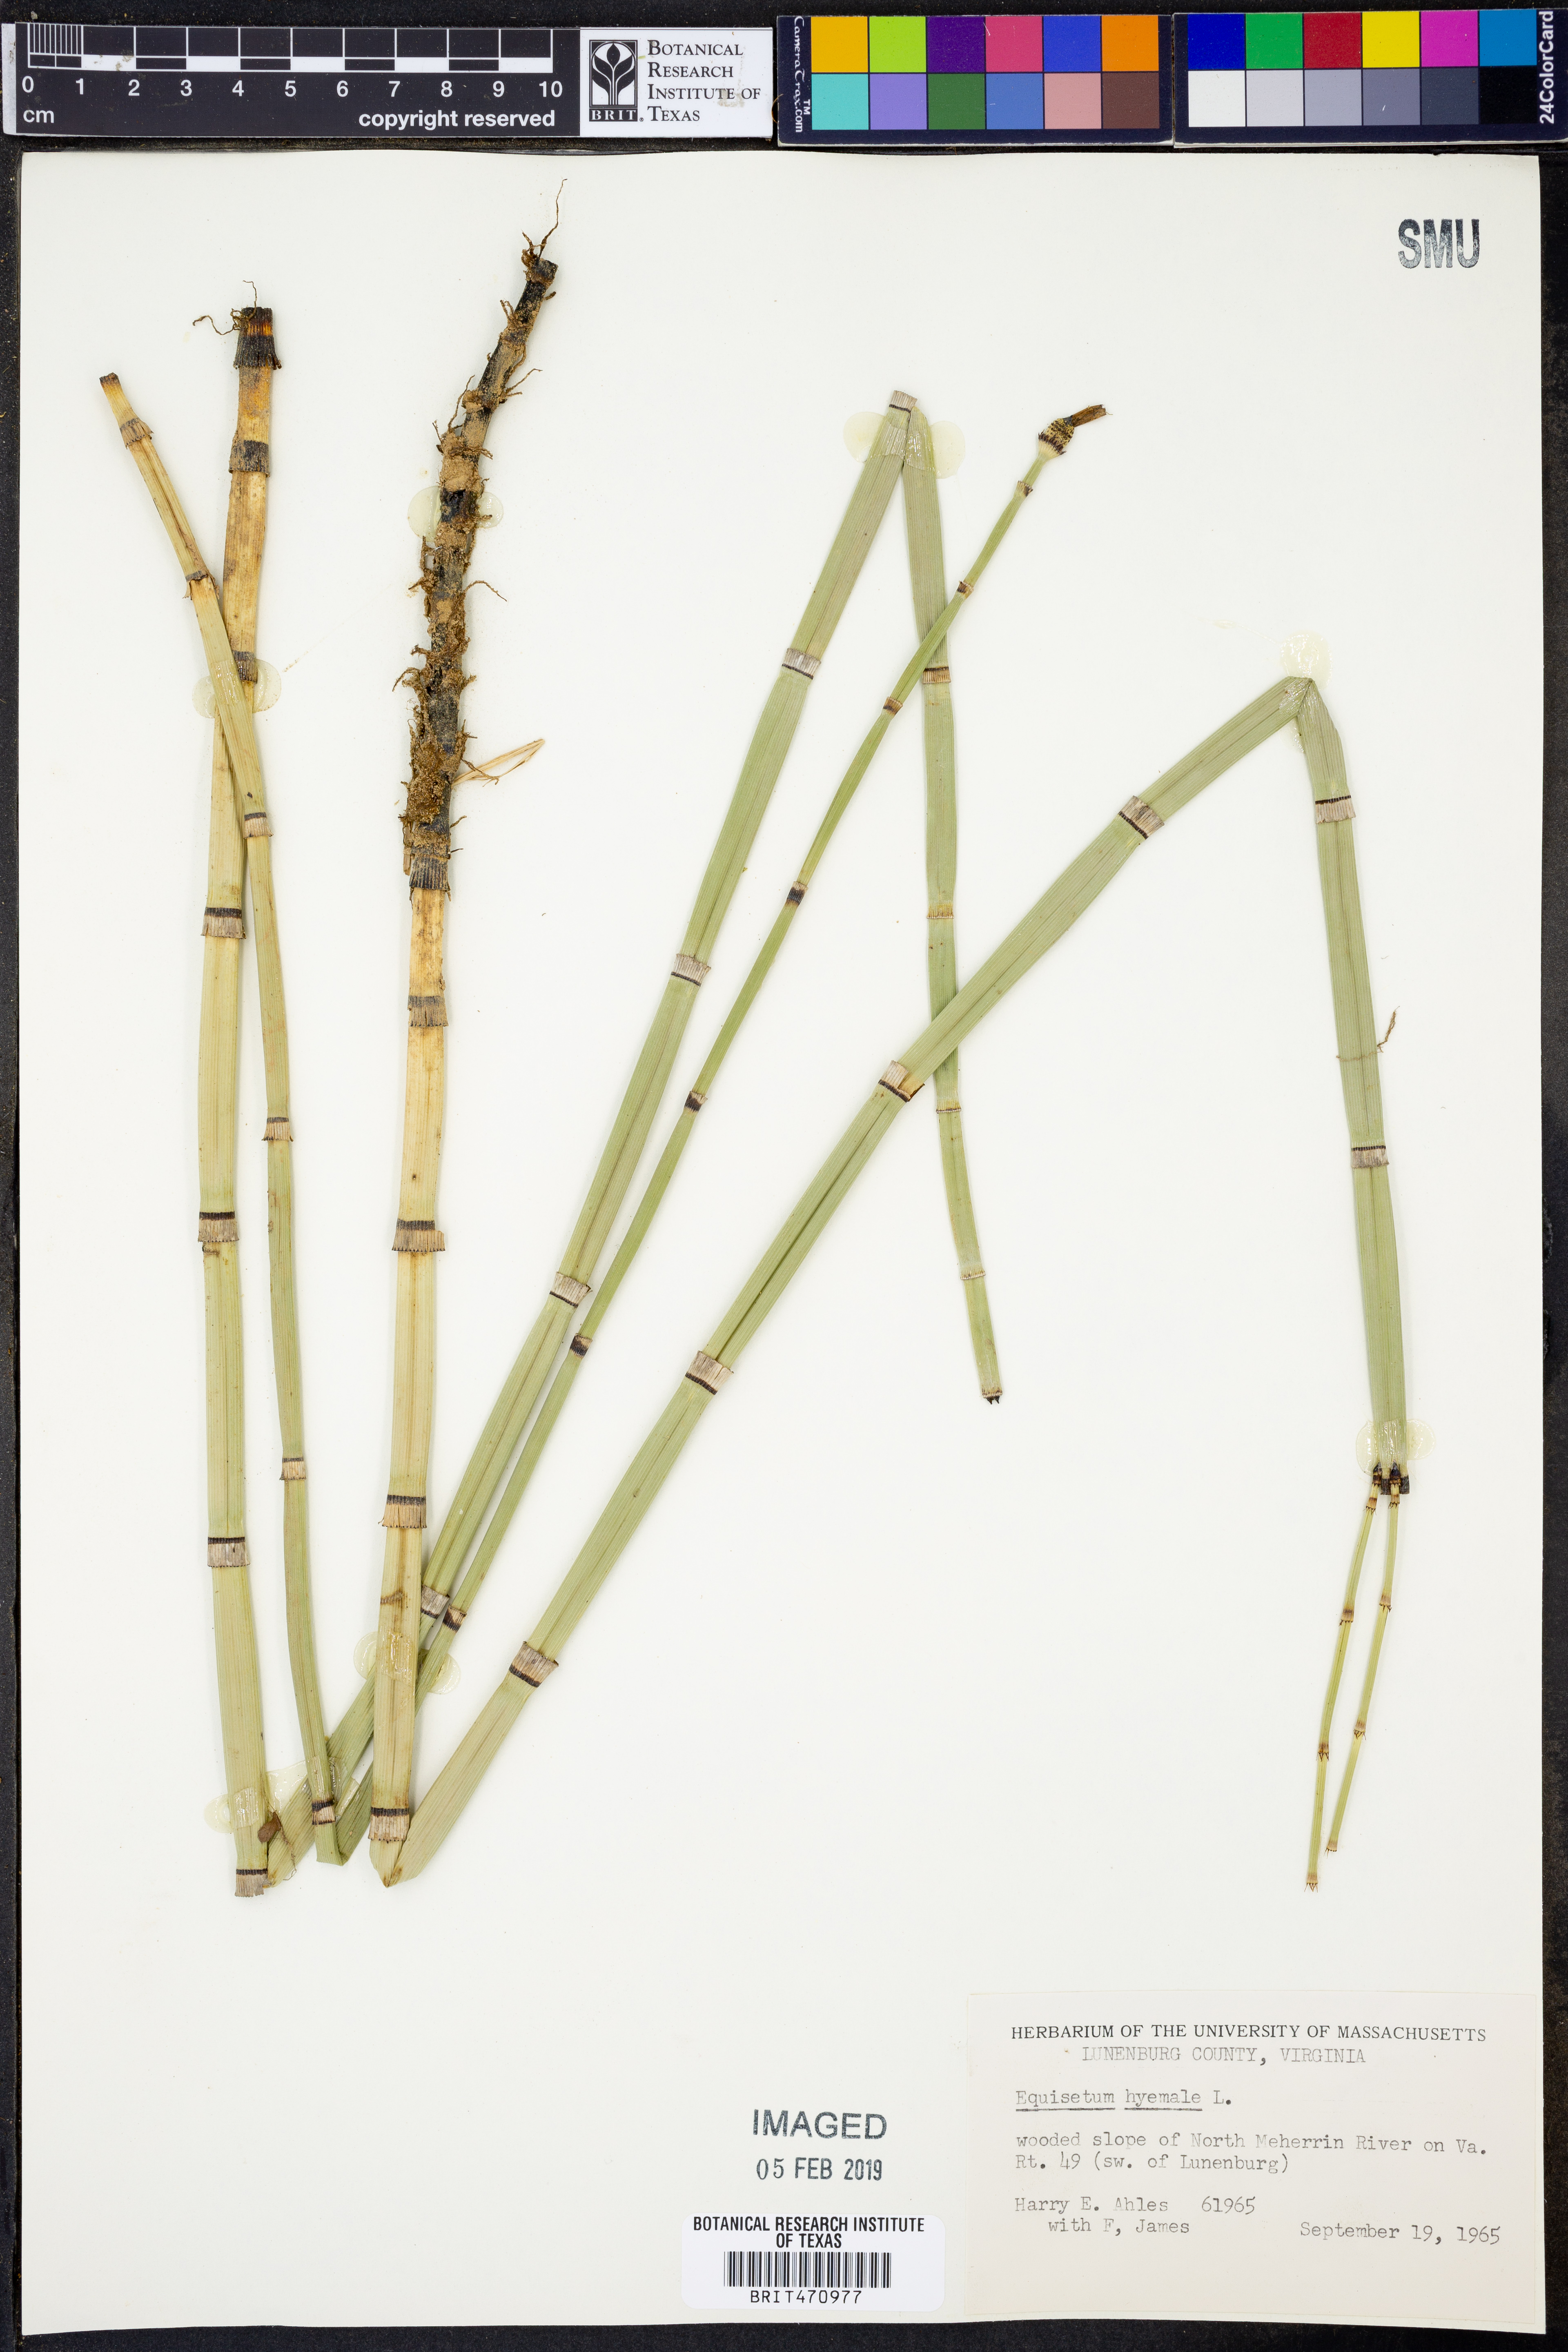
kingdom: Plantae
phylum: Tracheophyta
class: Polypodiopsida
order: Equisetales
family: Equisetaceae
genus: Equisetum
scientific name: Equisetum hyemale
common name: Rough horsetail
